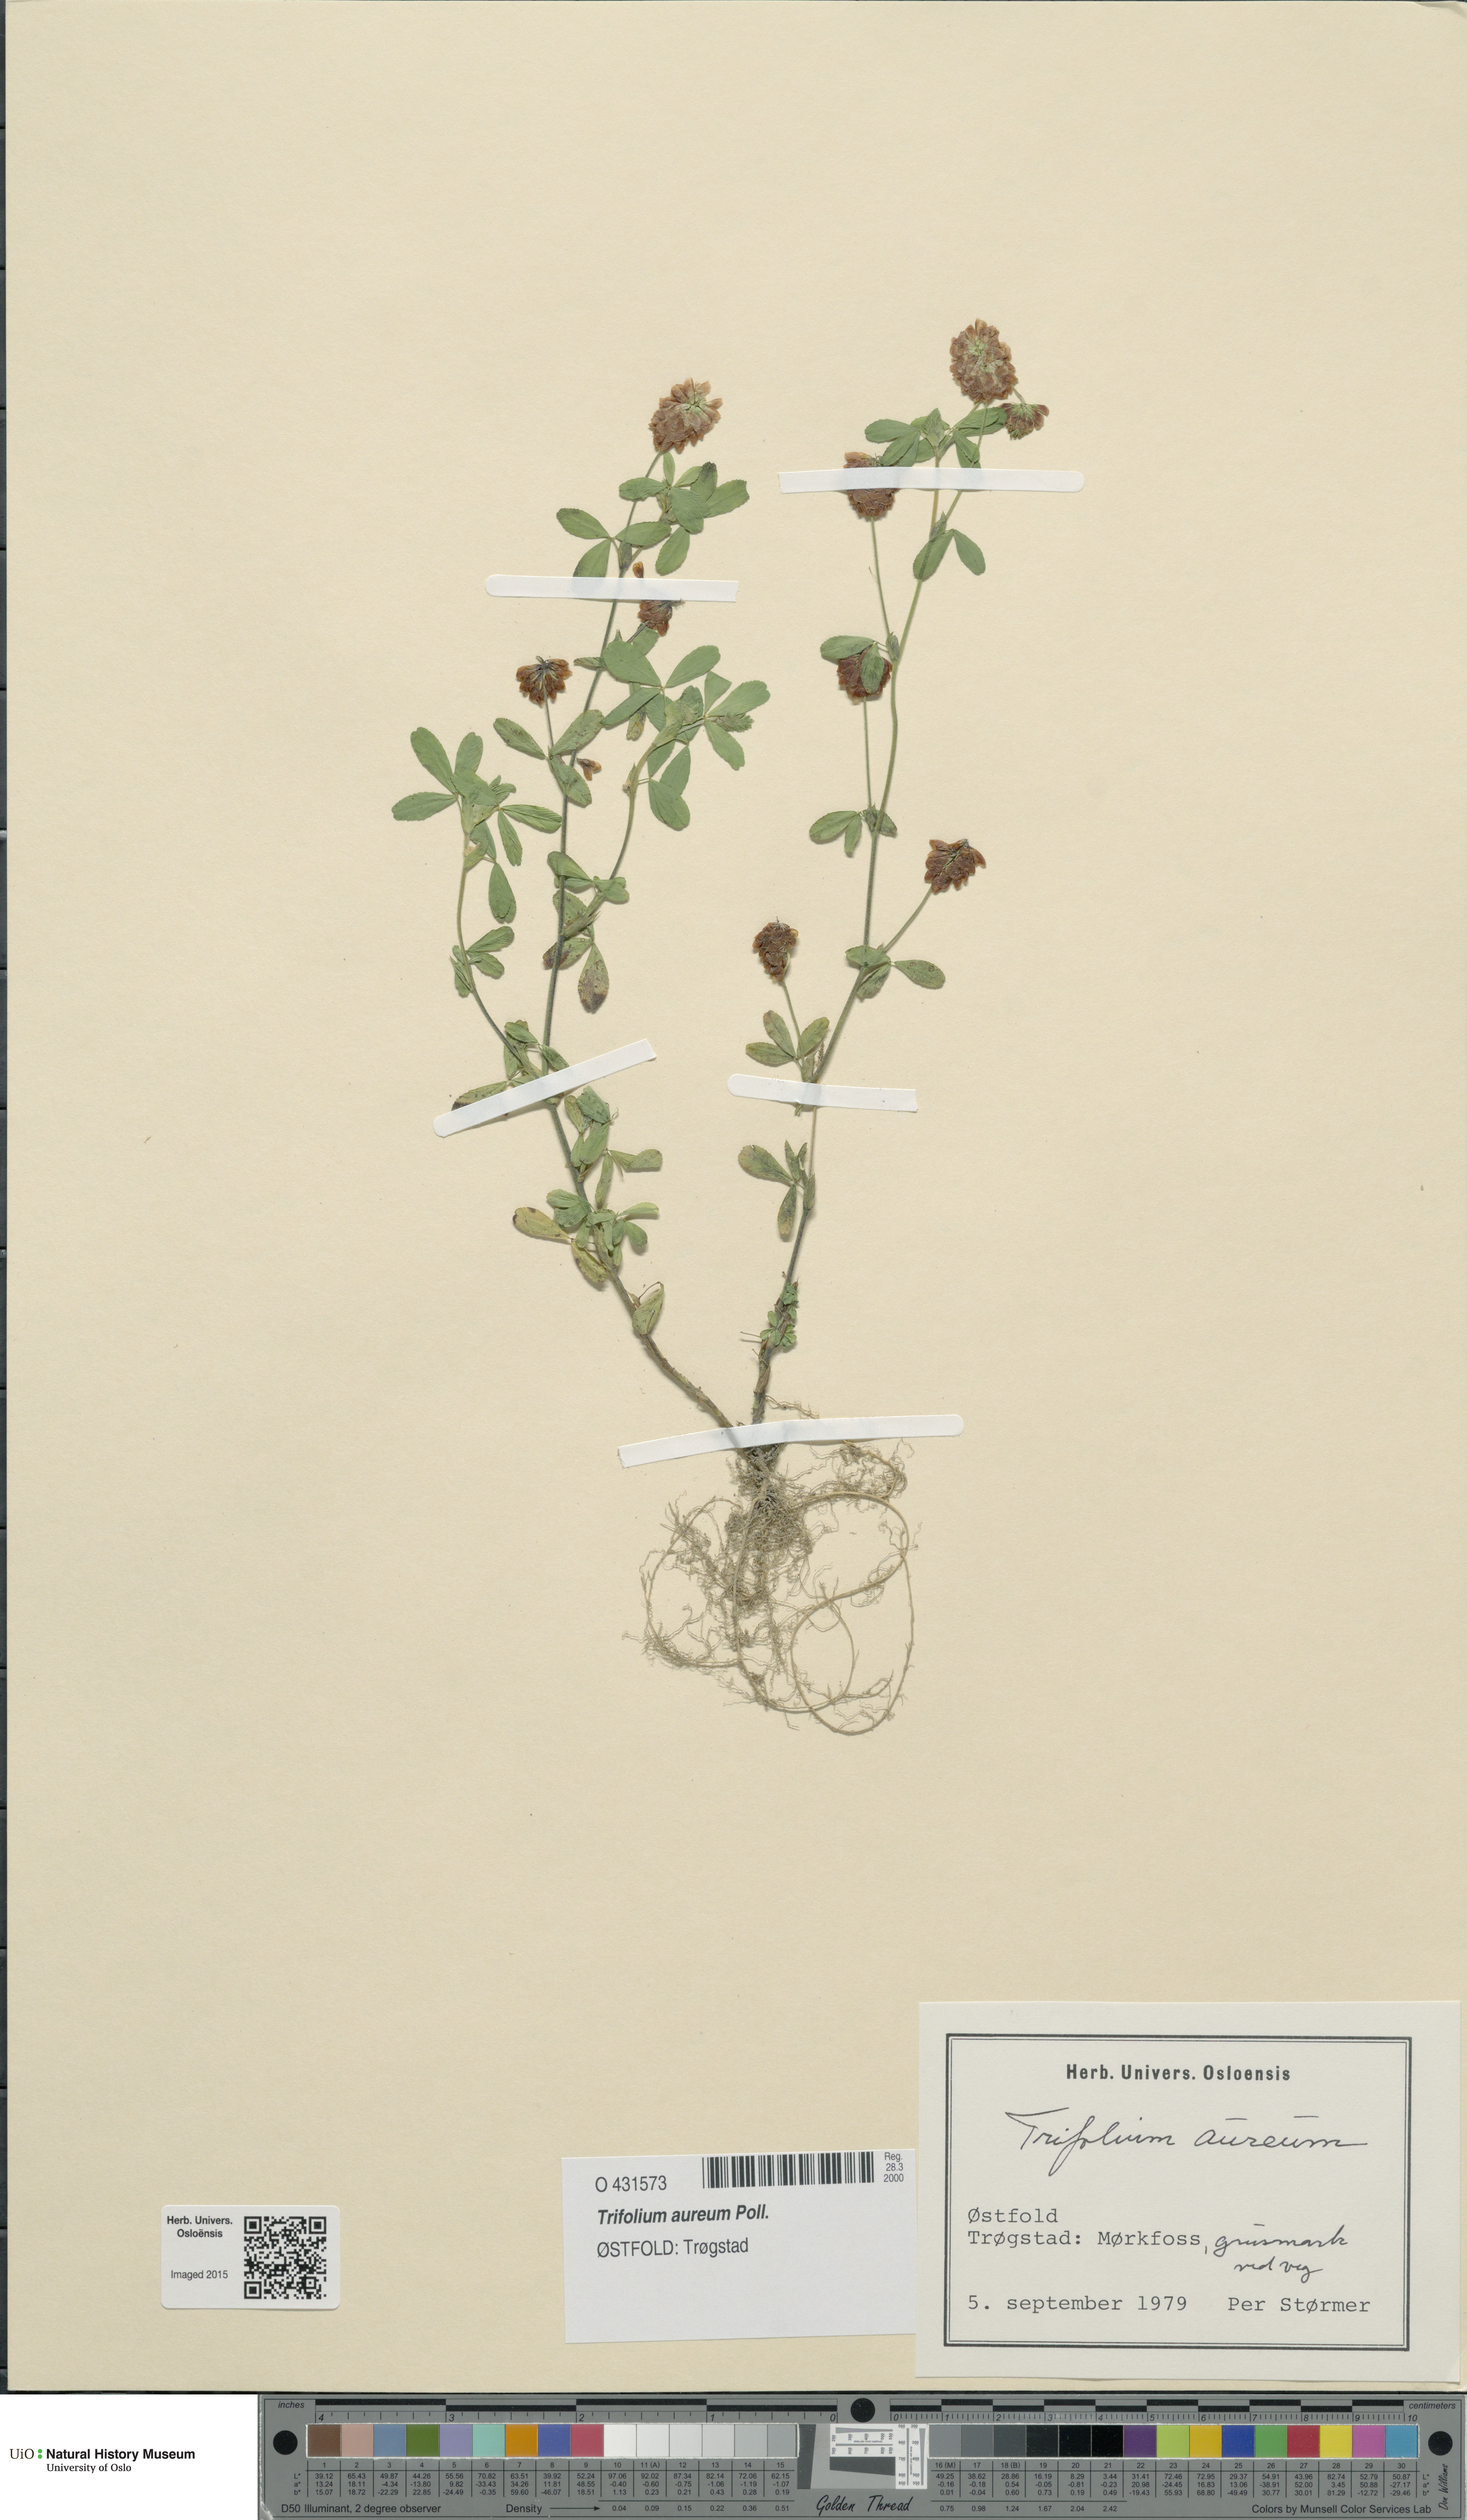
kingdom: Plantae
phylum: Tracheophyta
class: Magnoliopsida
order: Fabales
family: Fabaceae
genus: Trifolium
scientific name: Trifolium aureum
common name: Golden clover
